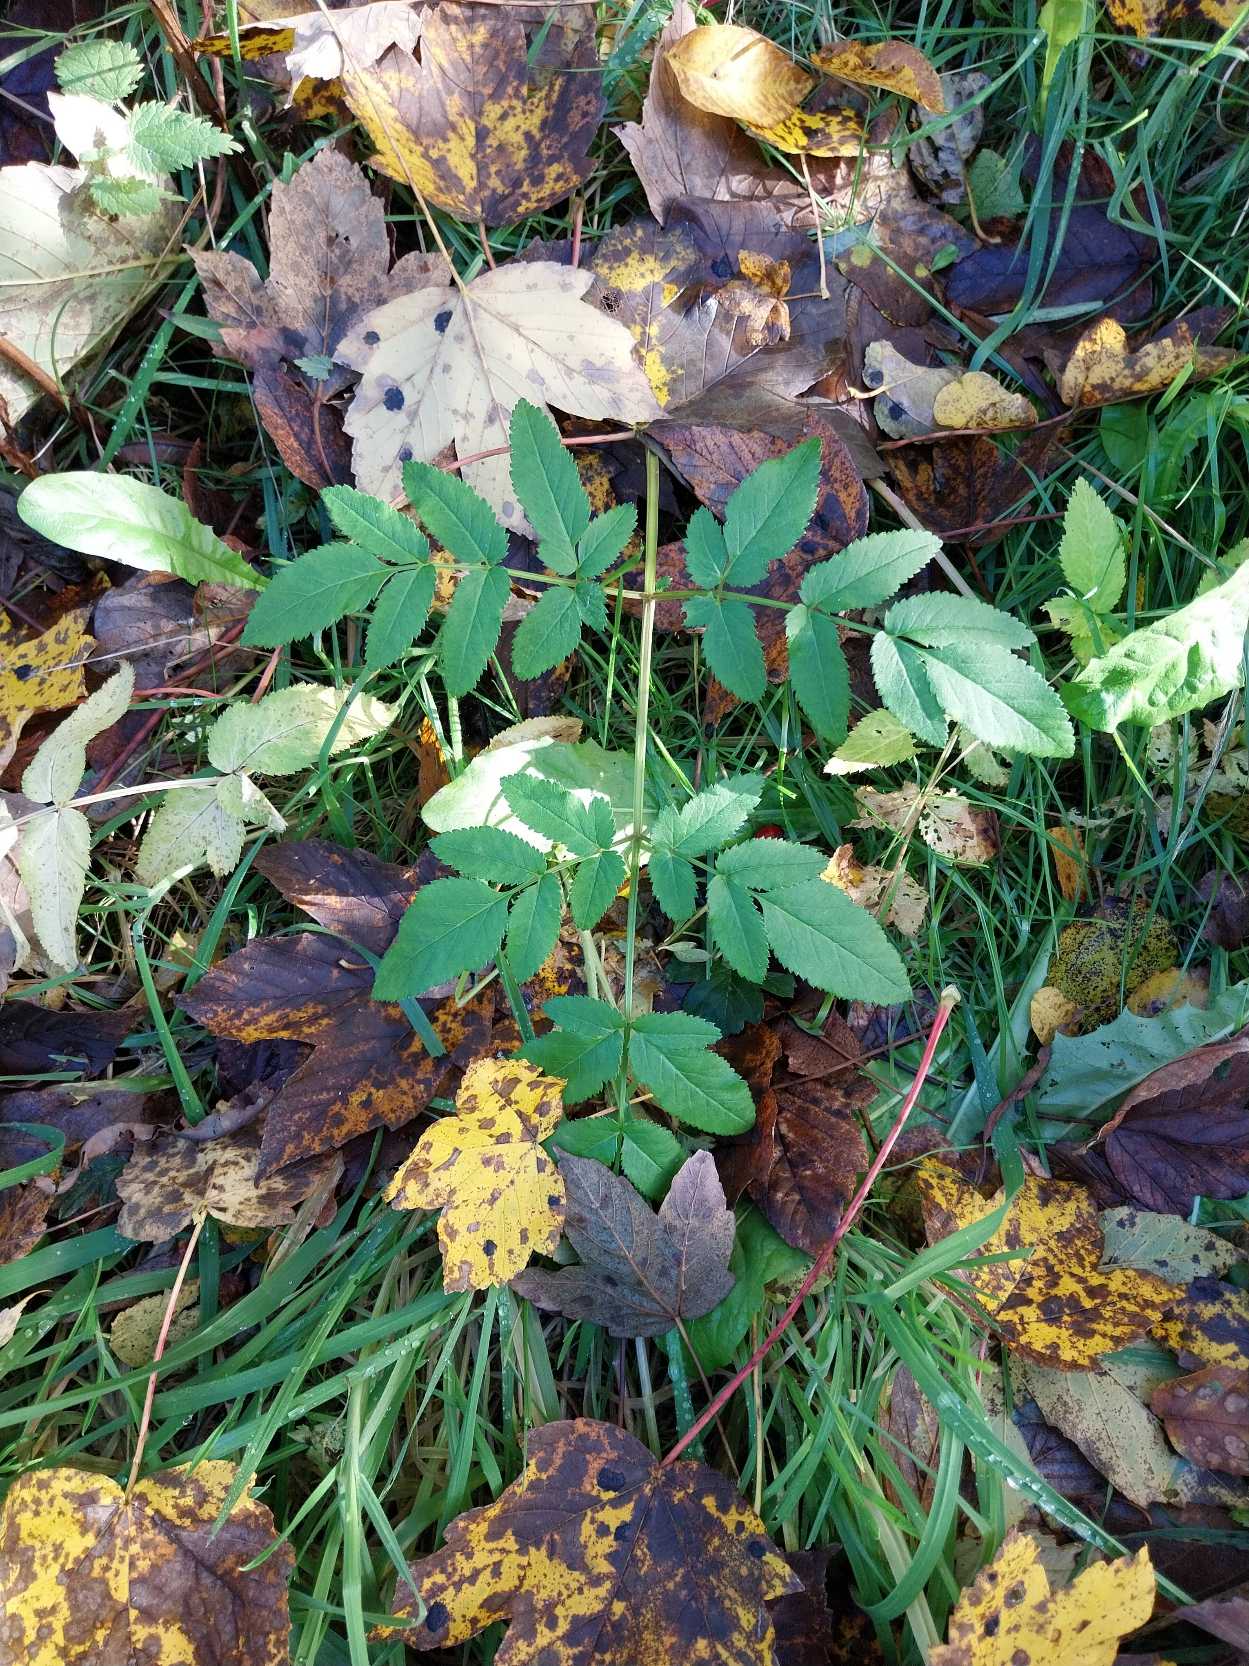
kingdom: Plantae
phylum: Tracheophyta
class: Magnoliopsida
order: Apiales
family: Apiaceae
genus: Angelica
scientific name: Angelica sylvestris
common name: Angelik
